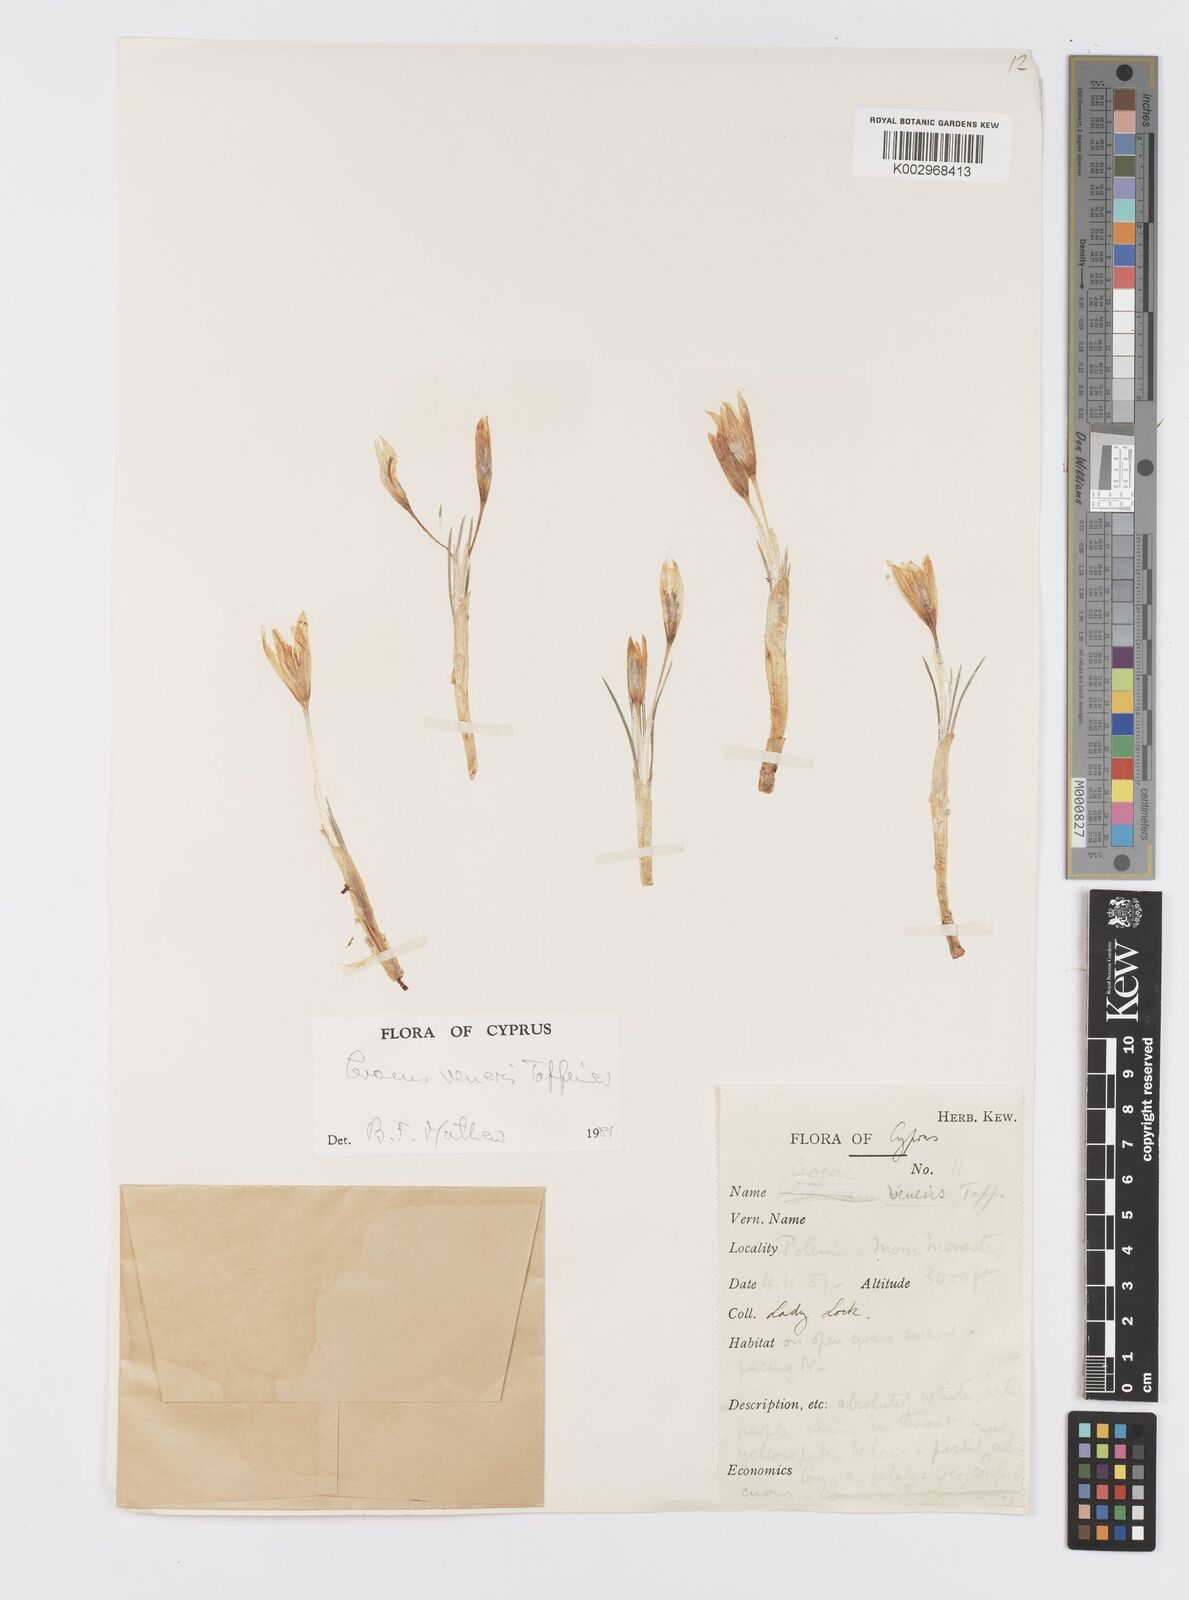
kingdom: Plantae
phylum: Tracheophyta
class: Liliopsida
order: Asparagales
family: Iridaceae
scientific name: Iridaceae
